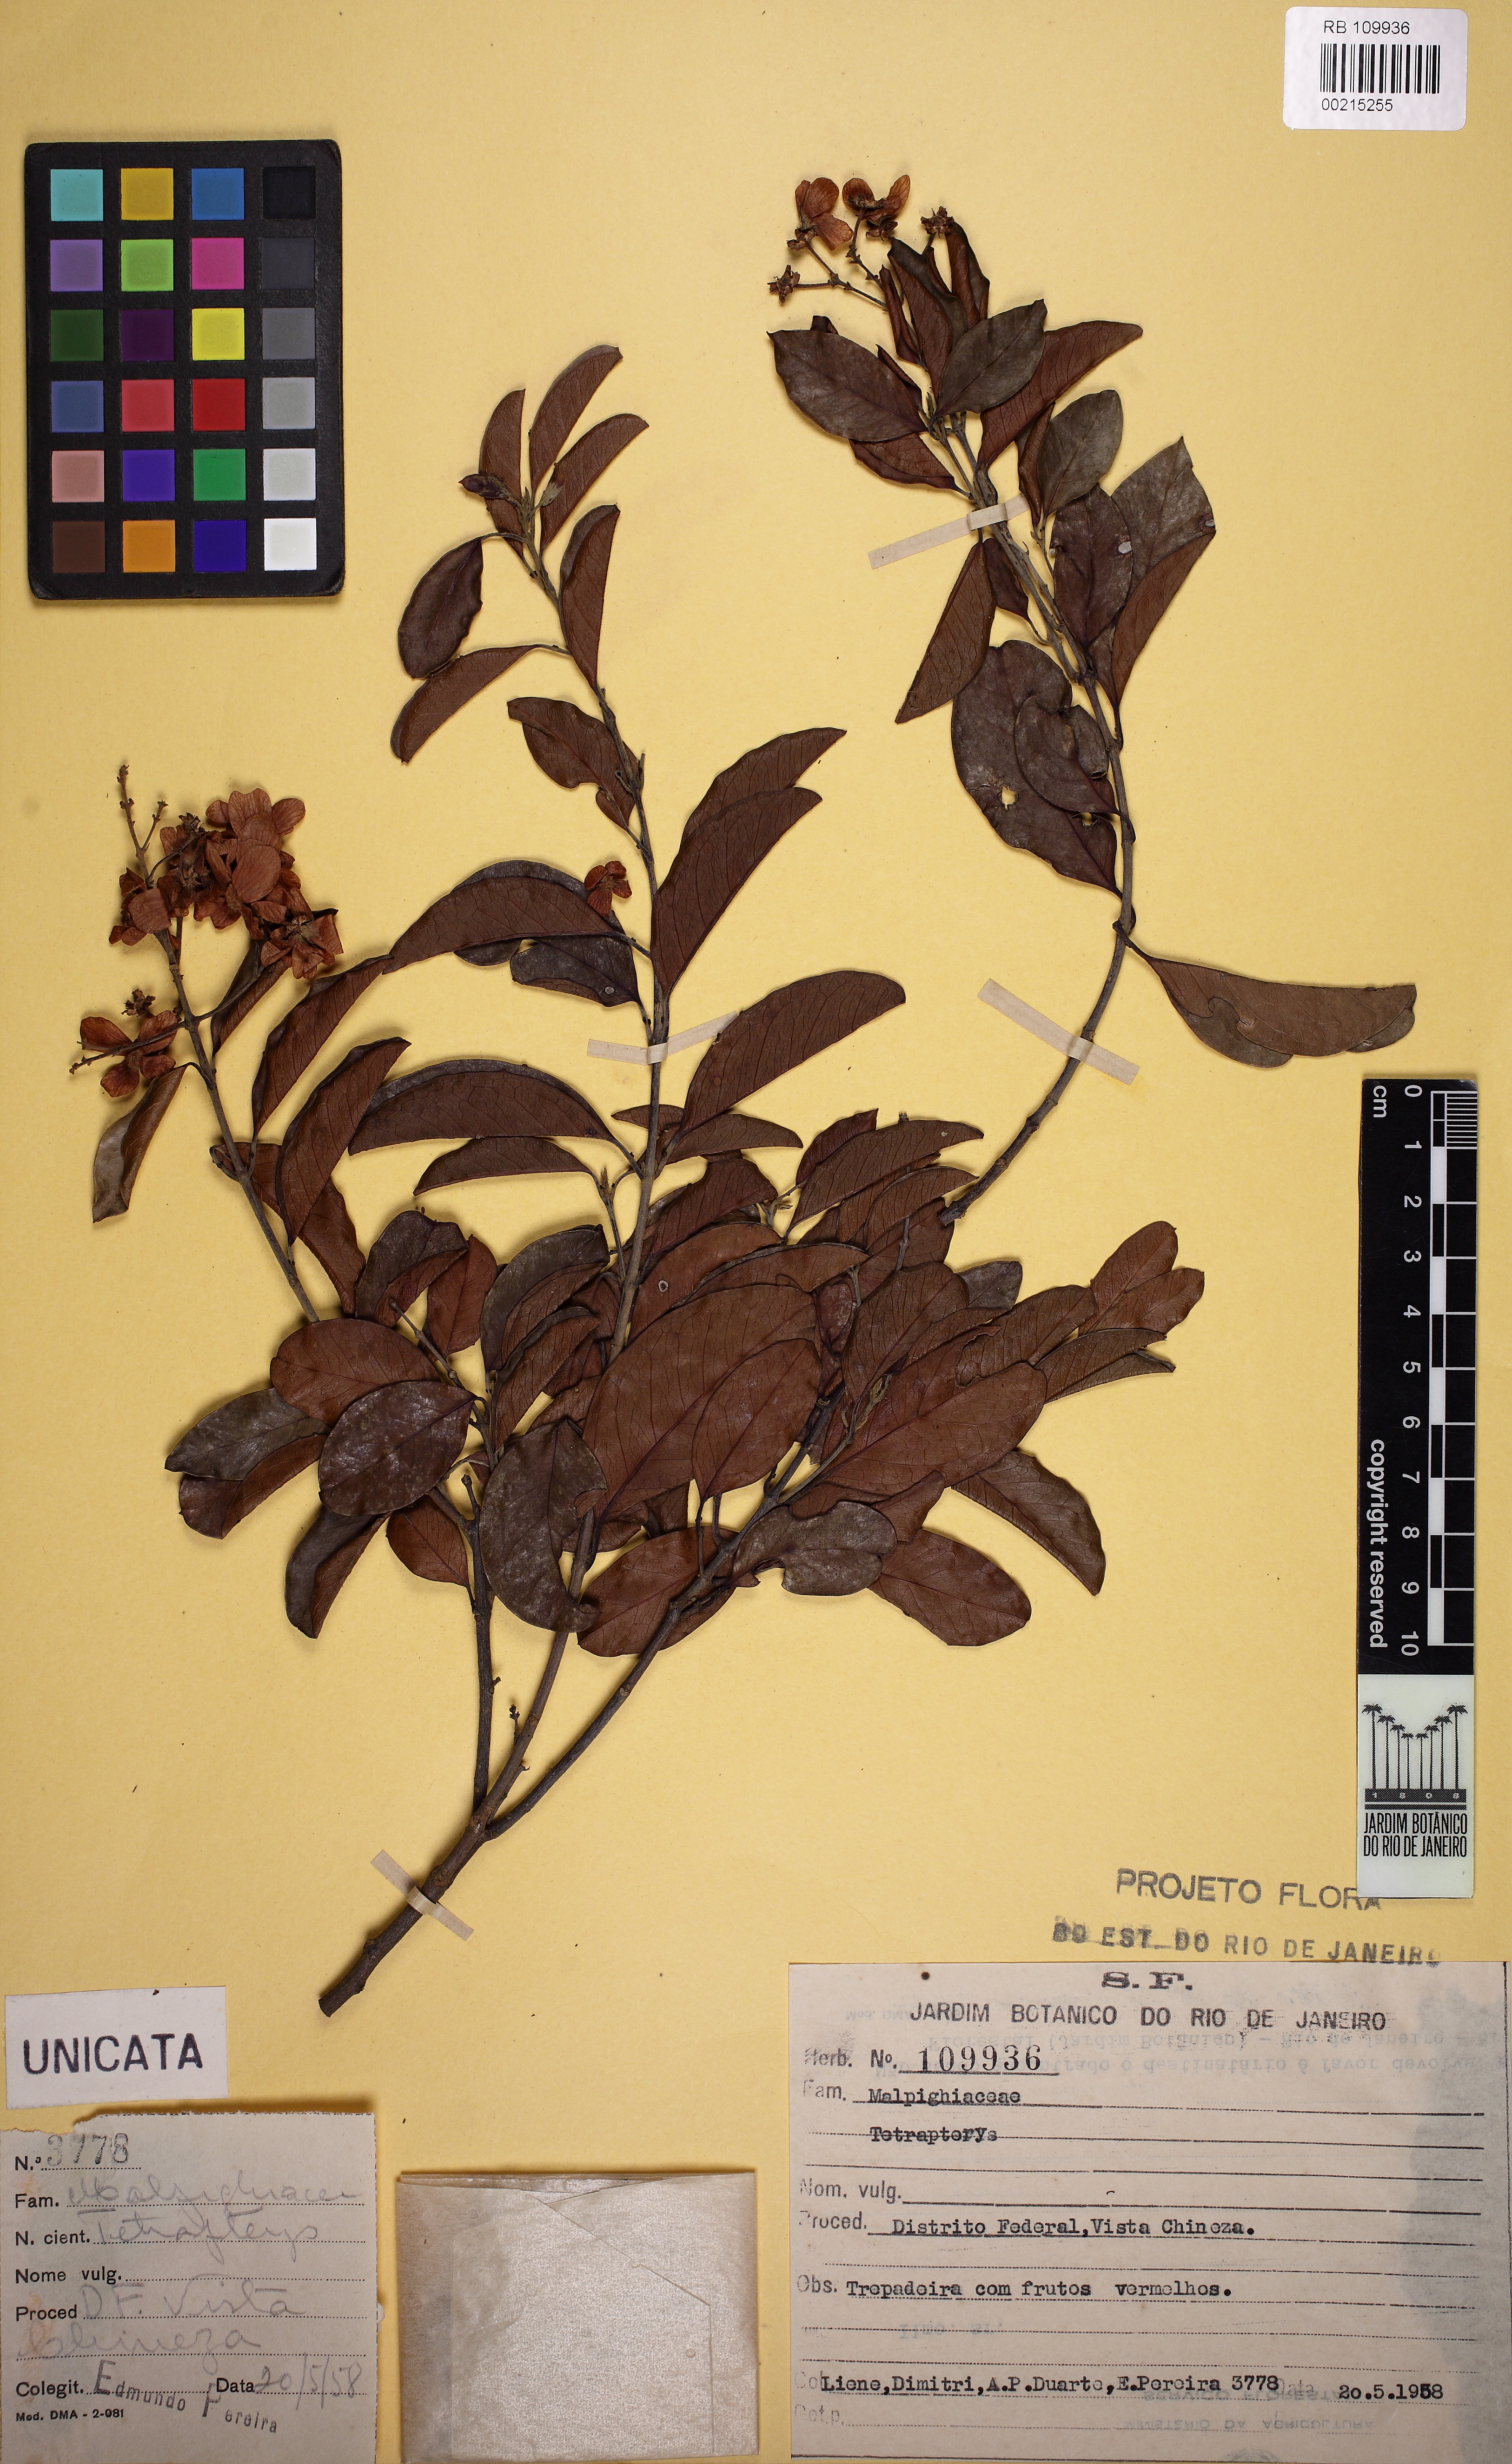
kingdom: Plantae
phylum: Tracheophyta
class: Magnoliopsida
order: Malpighiales
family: Malpighiaceae
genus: Niedenzuella
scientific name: Niedenzuella
